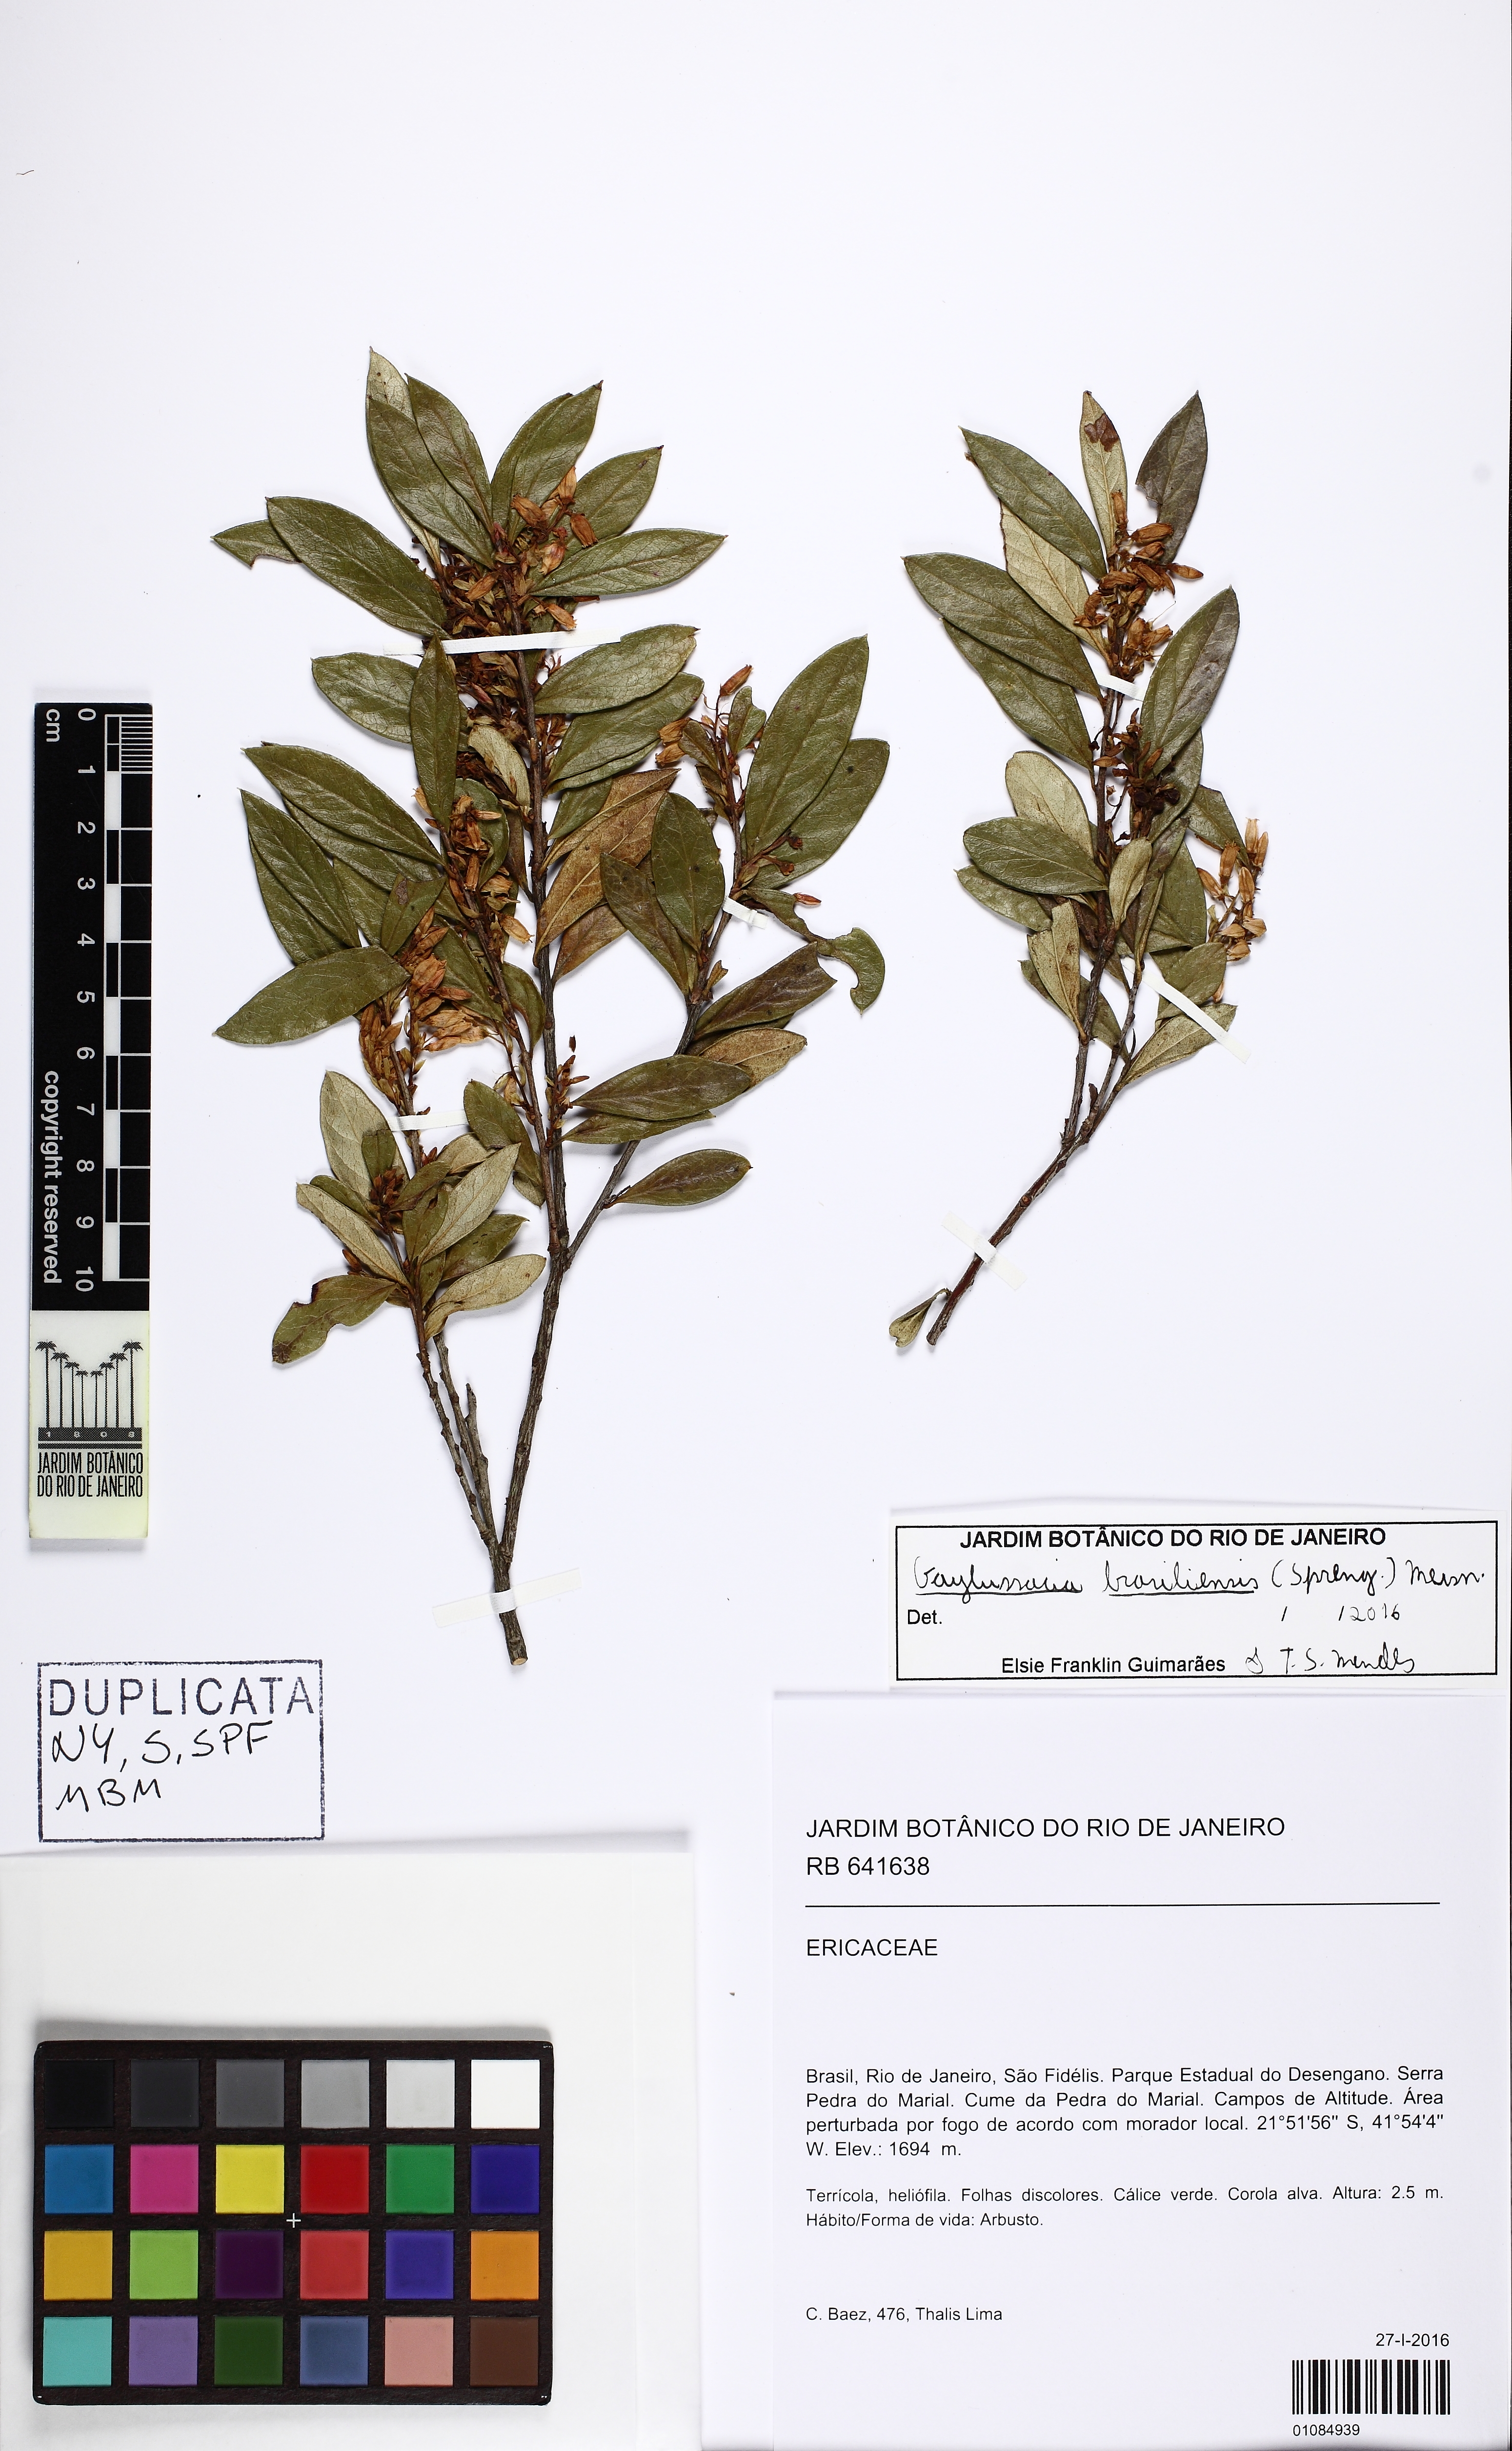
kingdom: Plantae
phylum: Tracheophyta
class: Magnoliopsida
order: Ericales
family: Ericaceae
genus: Gaylussacia
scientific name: Gaylussacia brasiliensis
